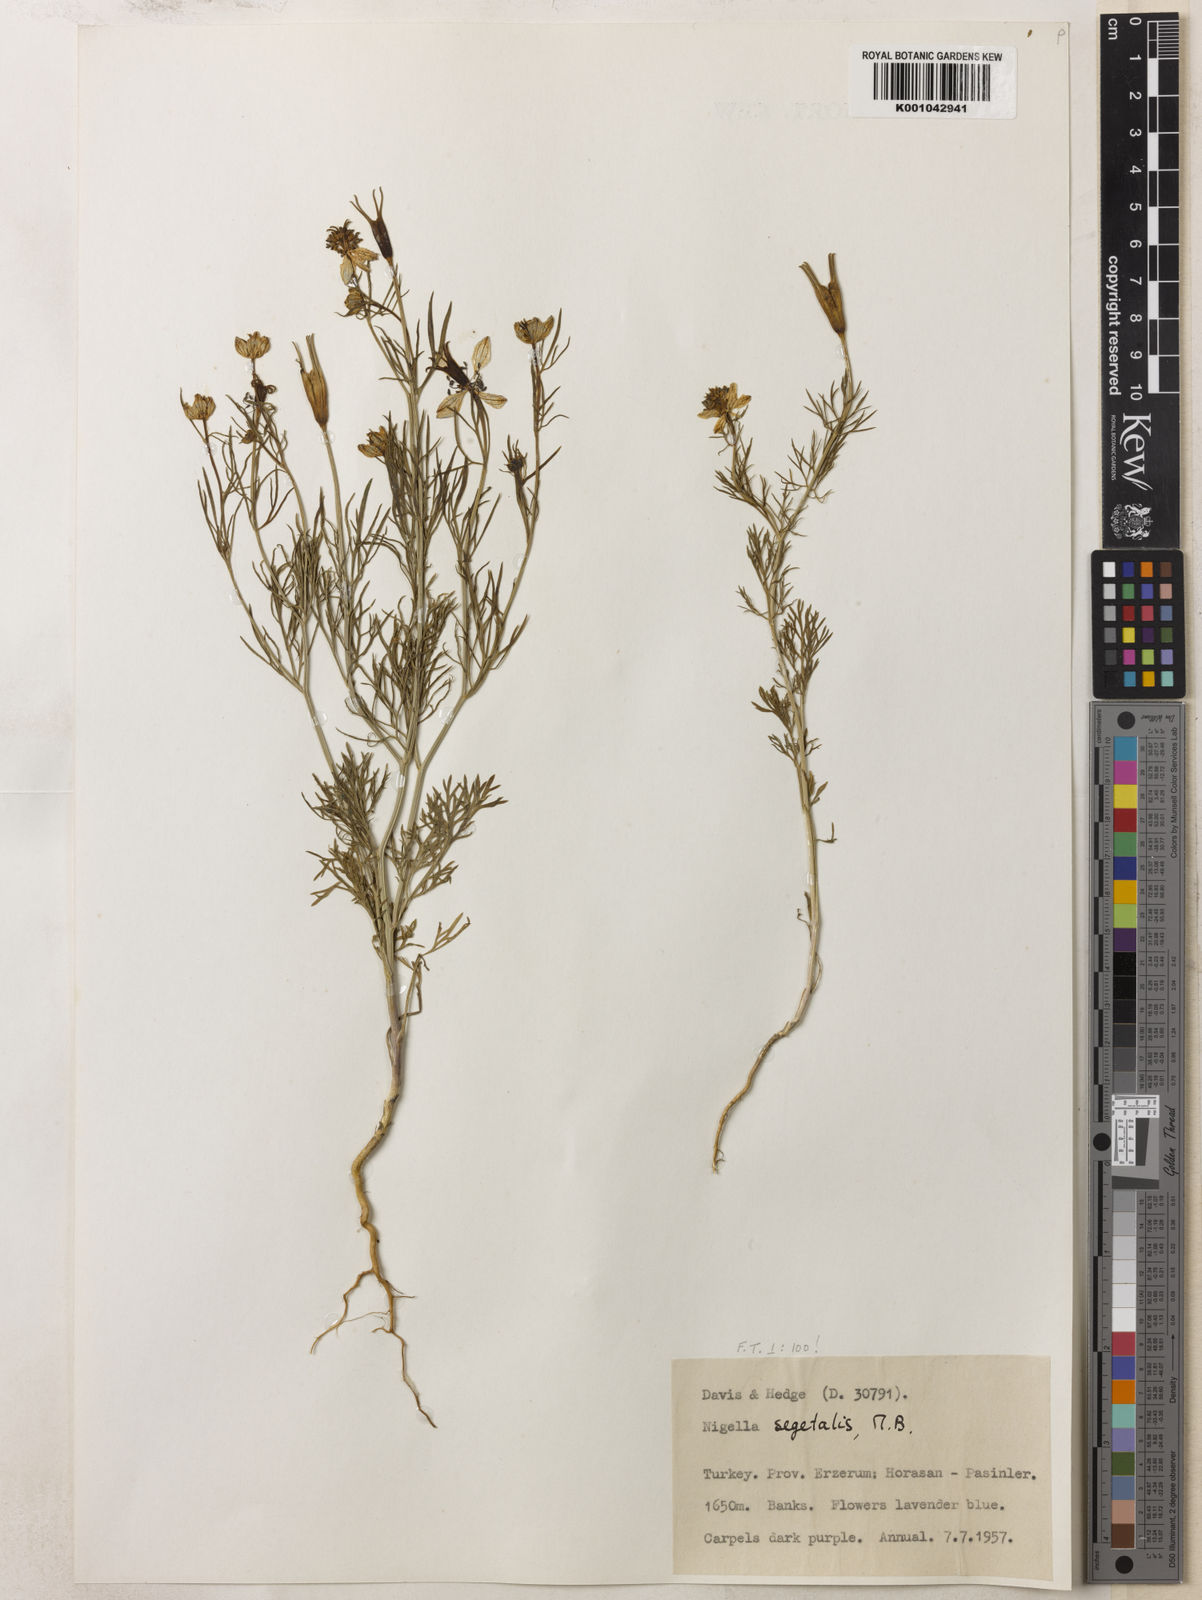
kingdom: Plantae
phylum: Tracheophyta
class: Magnoliopsida
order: Ranunculales
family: Ranunculaceae
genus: Nigella
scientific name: Nigella segetalis
